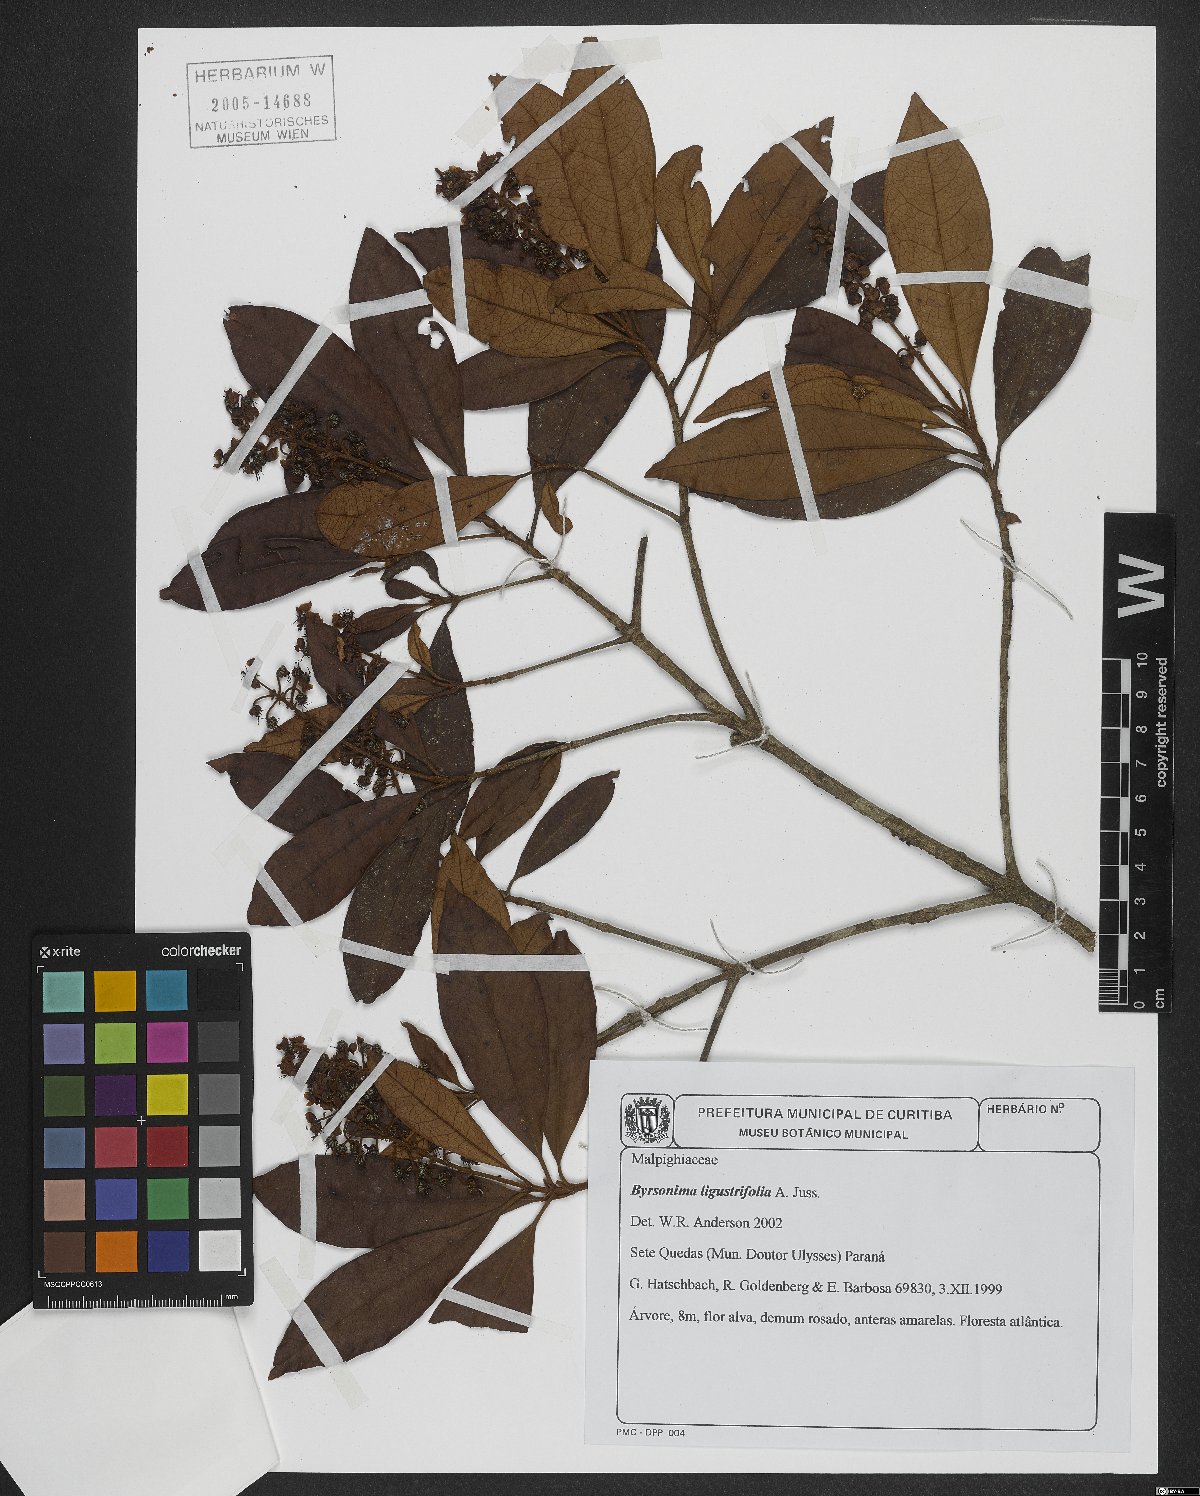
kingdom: Plantae
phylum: Tracheophyta
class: Magnoliopsida
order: Malpighiales
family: Malpighiaceae
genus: Byrsonima
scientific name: Byrsonima ligustrifolia
